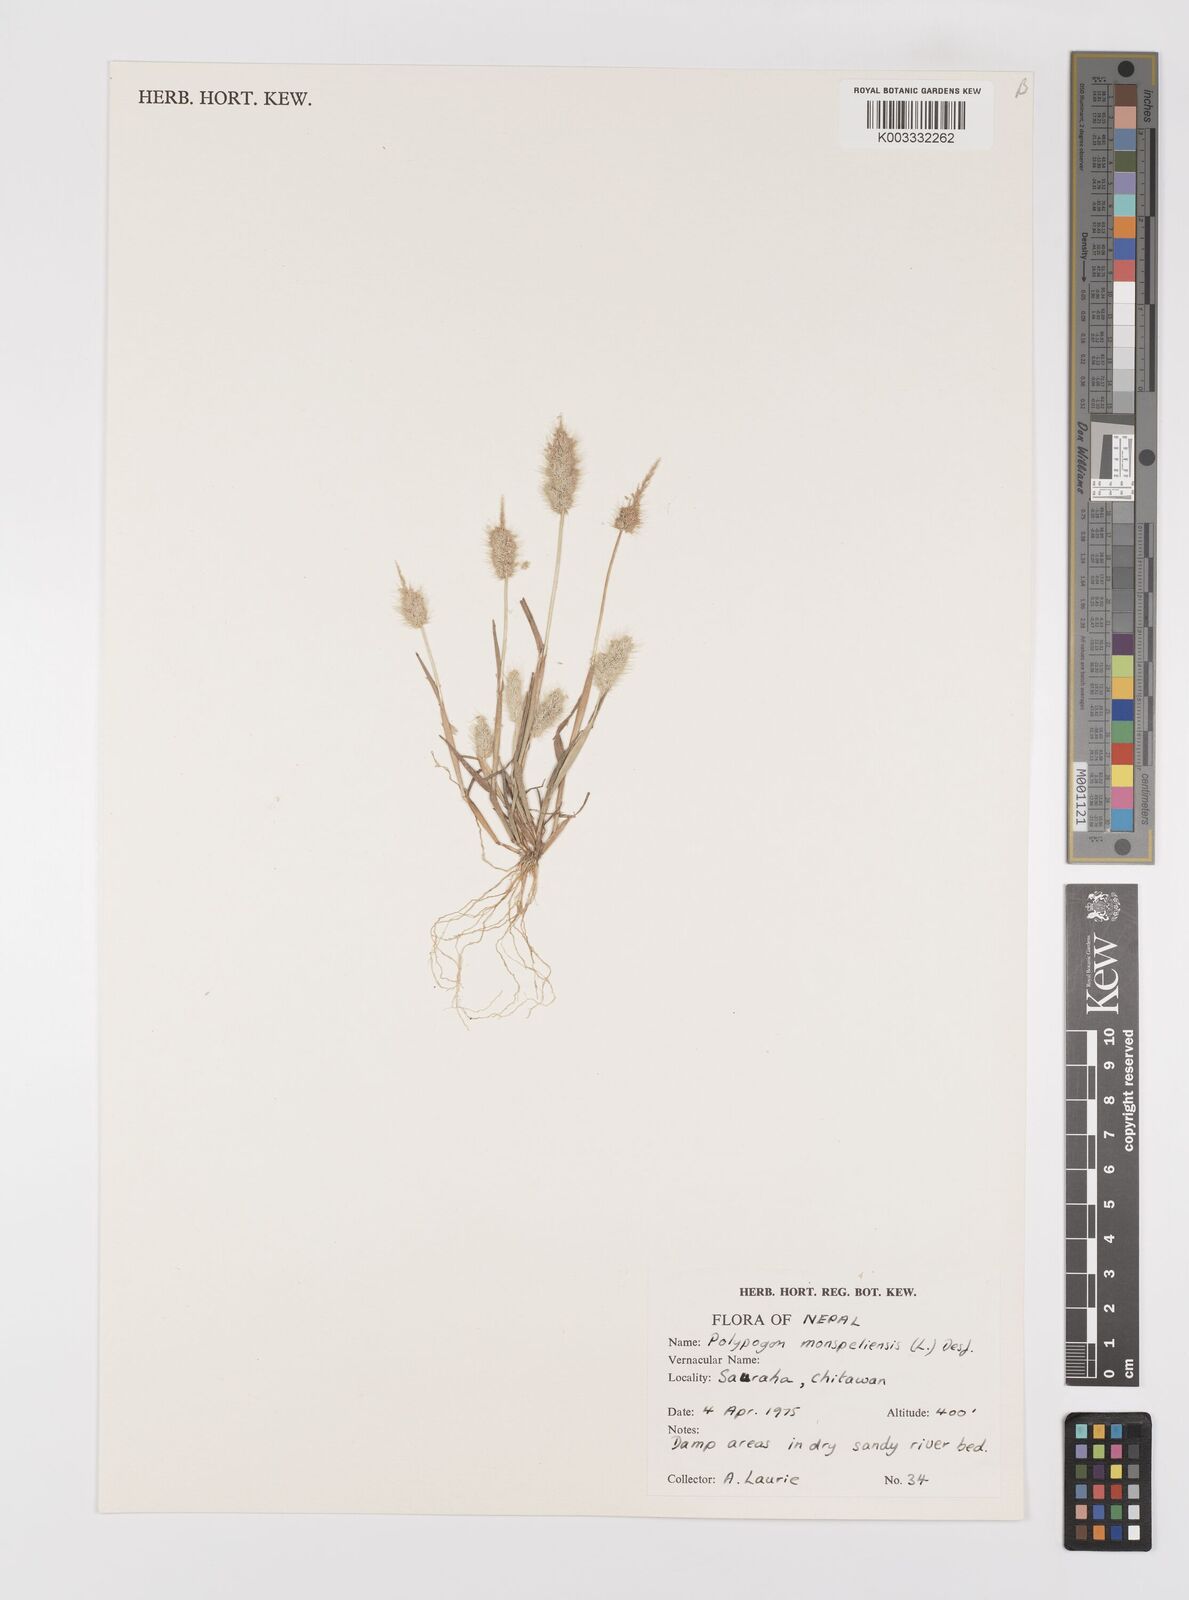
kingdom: Plantae
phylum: Tracheophyta
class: Liliopsida
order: Poales
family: Poaceae
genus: Polypogon
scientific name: Polypogon monspeliensis
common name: Annual rabbitsfoot grass
